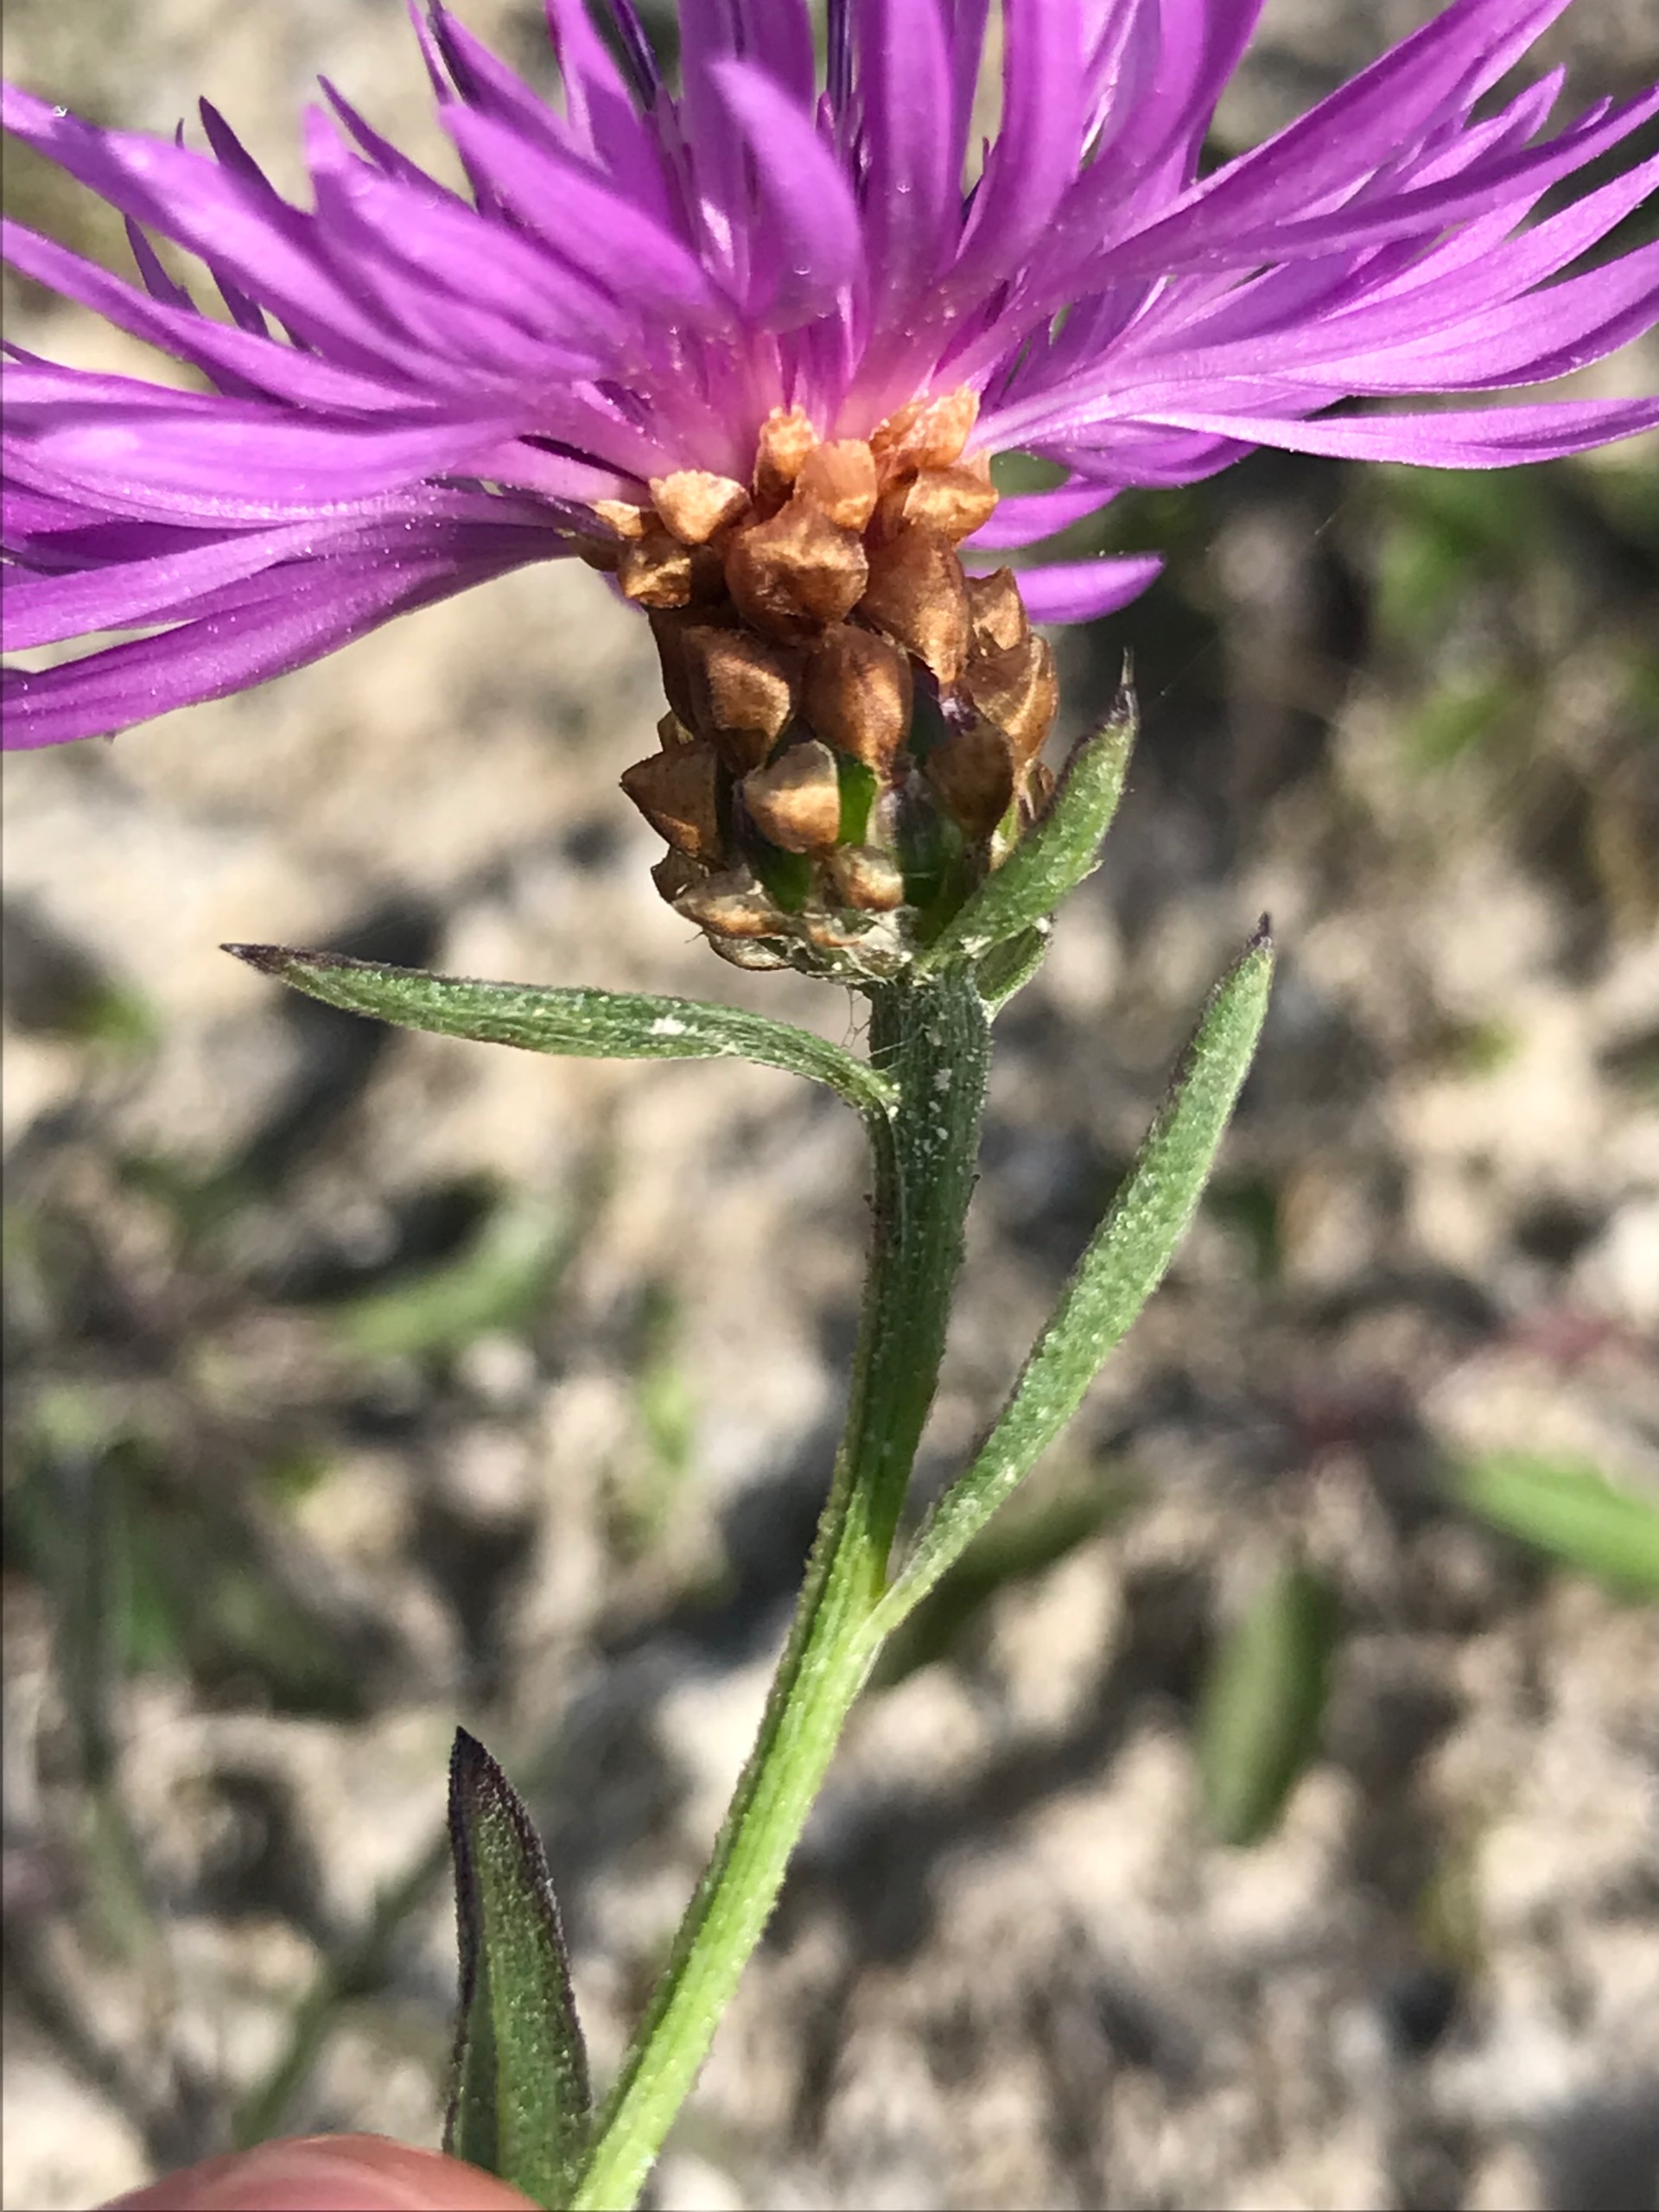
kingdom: Plantae
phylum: Tracheophyta
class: Magnoliopsida
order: Asterales
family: Asteraceae
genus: Centaurea
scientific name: Centaurea jacea
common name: Almindelig knopurt
